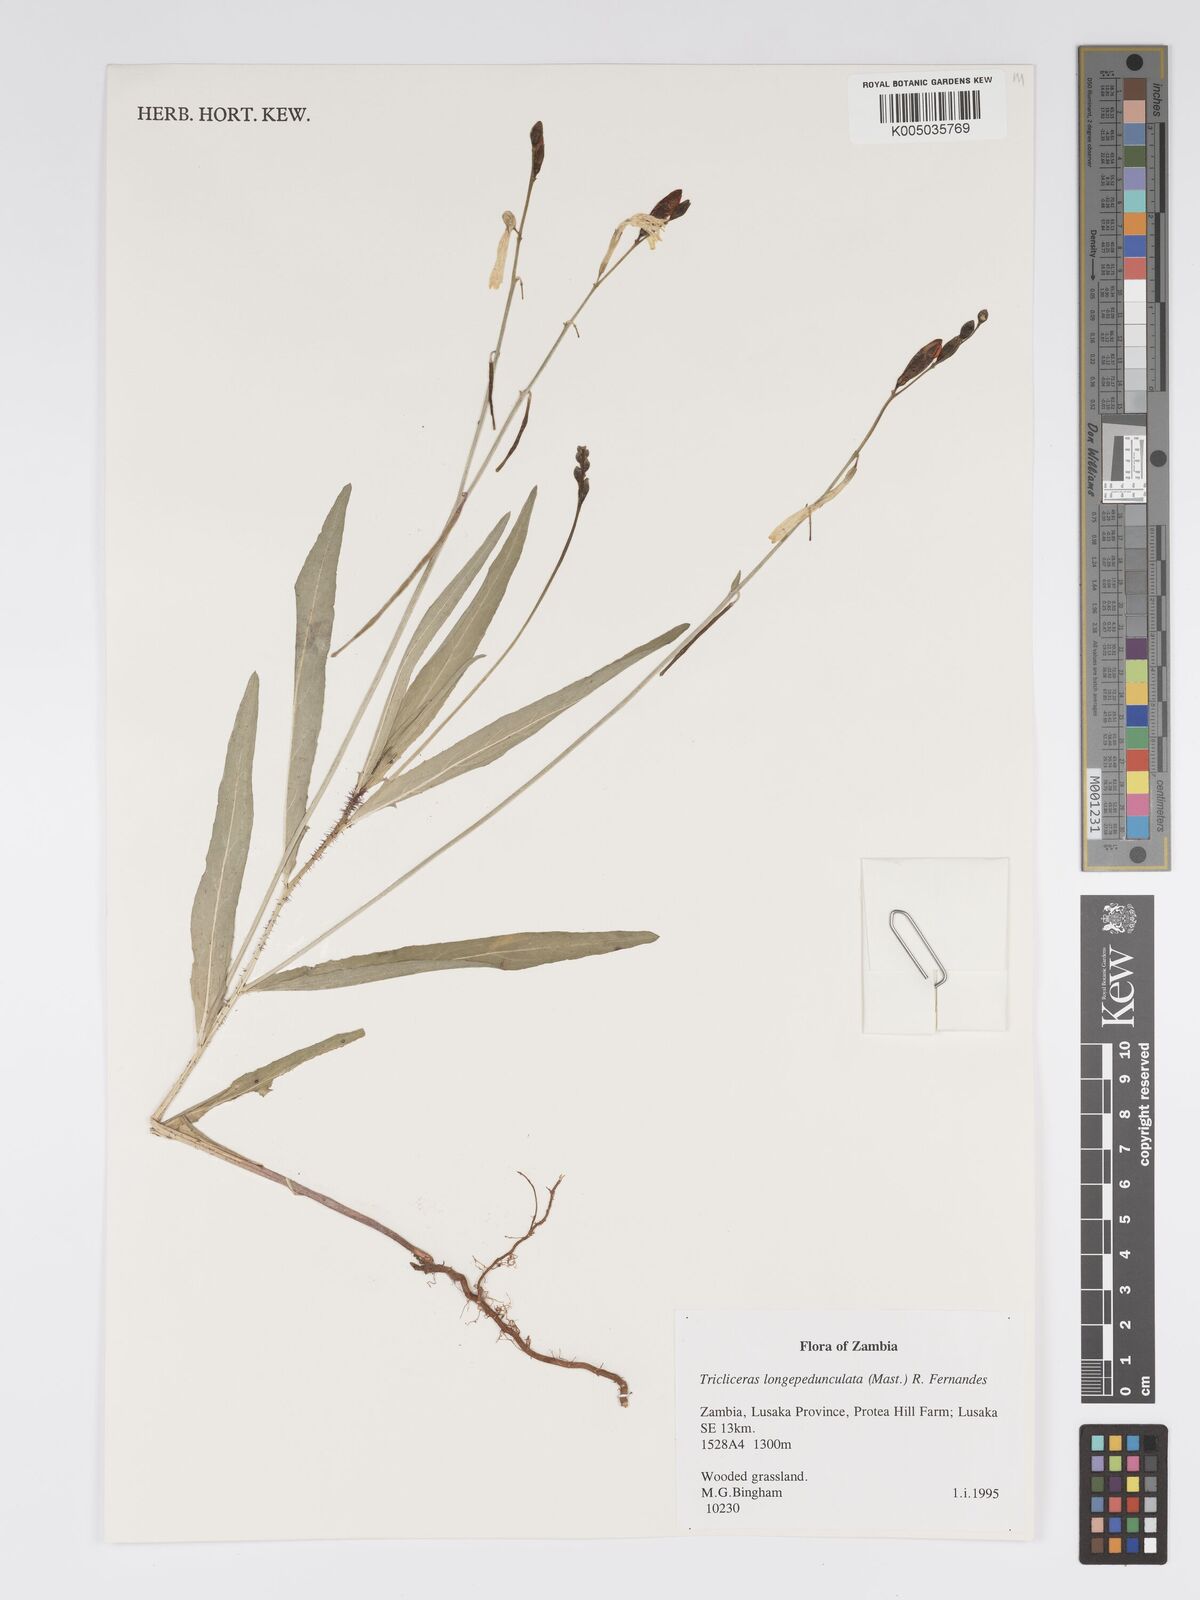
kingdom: Plantae
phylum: Tracheophyta
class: Magnoliopsida
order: Malpighiales
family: Turneraceae
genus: Tricliceras
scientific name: Tricliceras longepedunculatum
